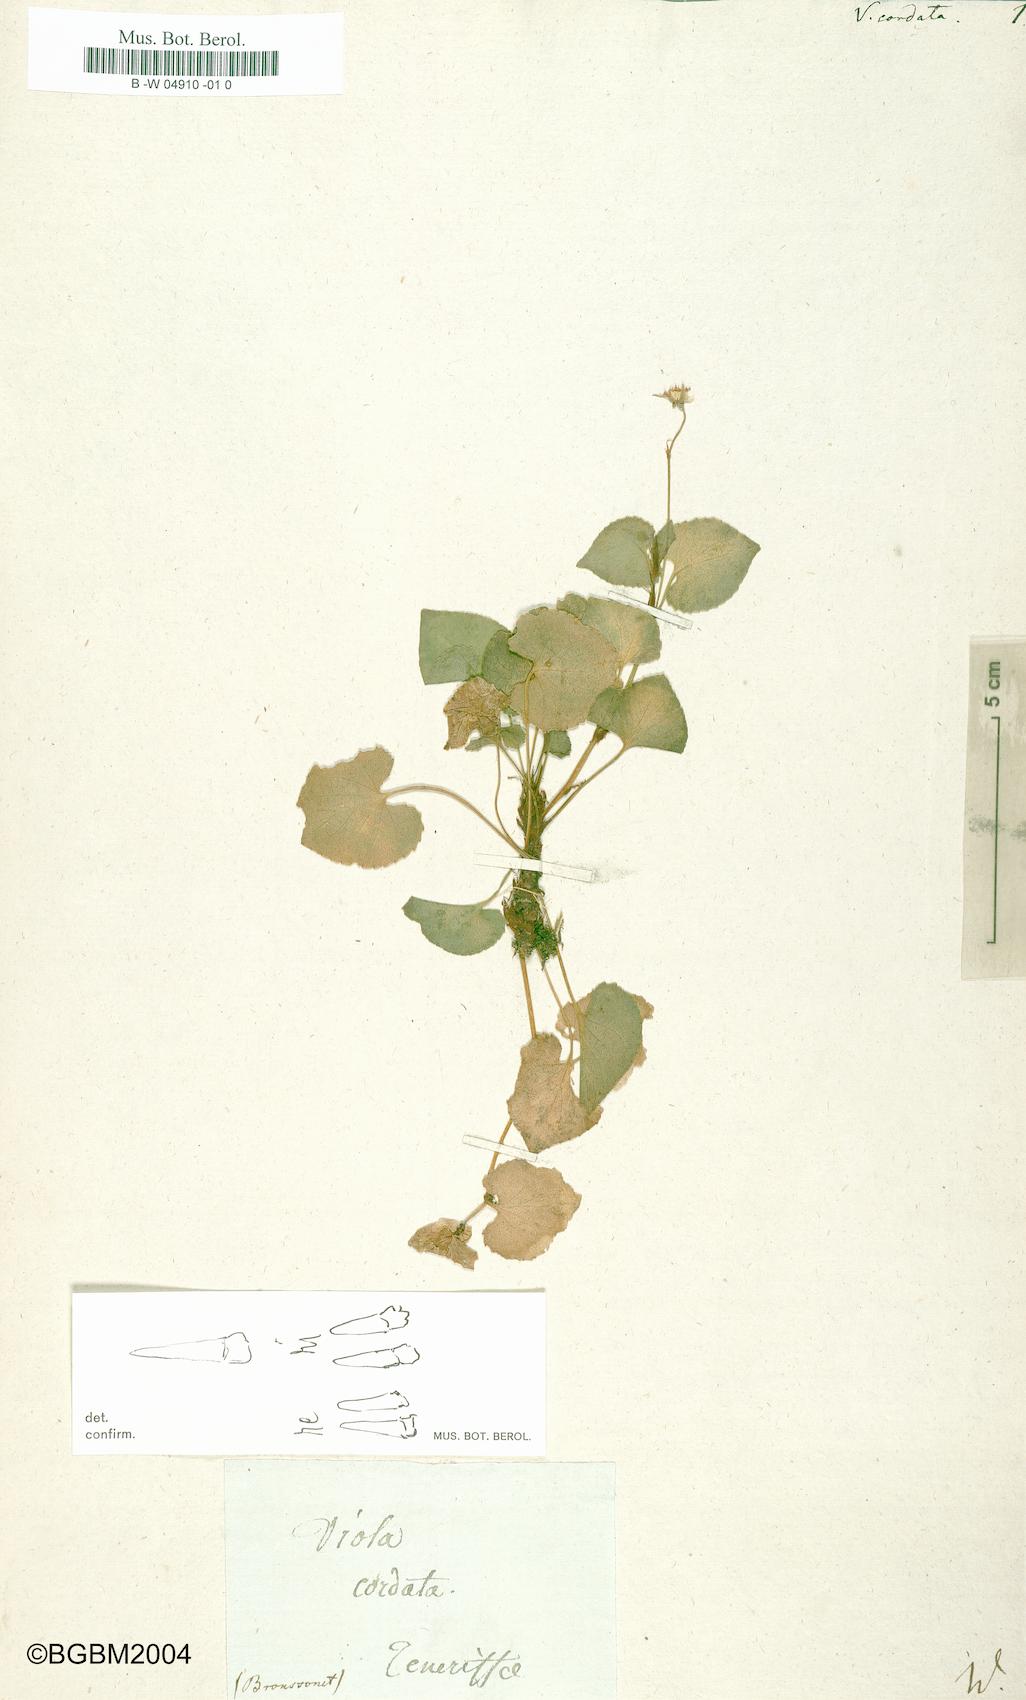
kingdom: Plantae
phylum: Tracheophyta
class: Magnoliopsida
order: Malpighiales
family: Violaceae
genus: Viola
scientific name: Viola
